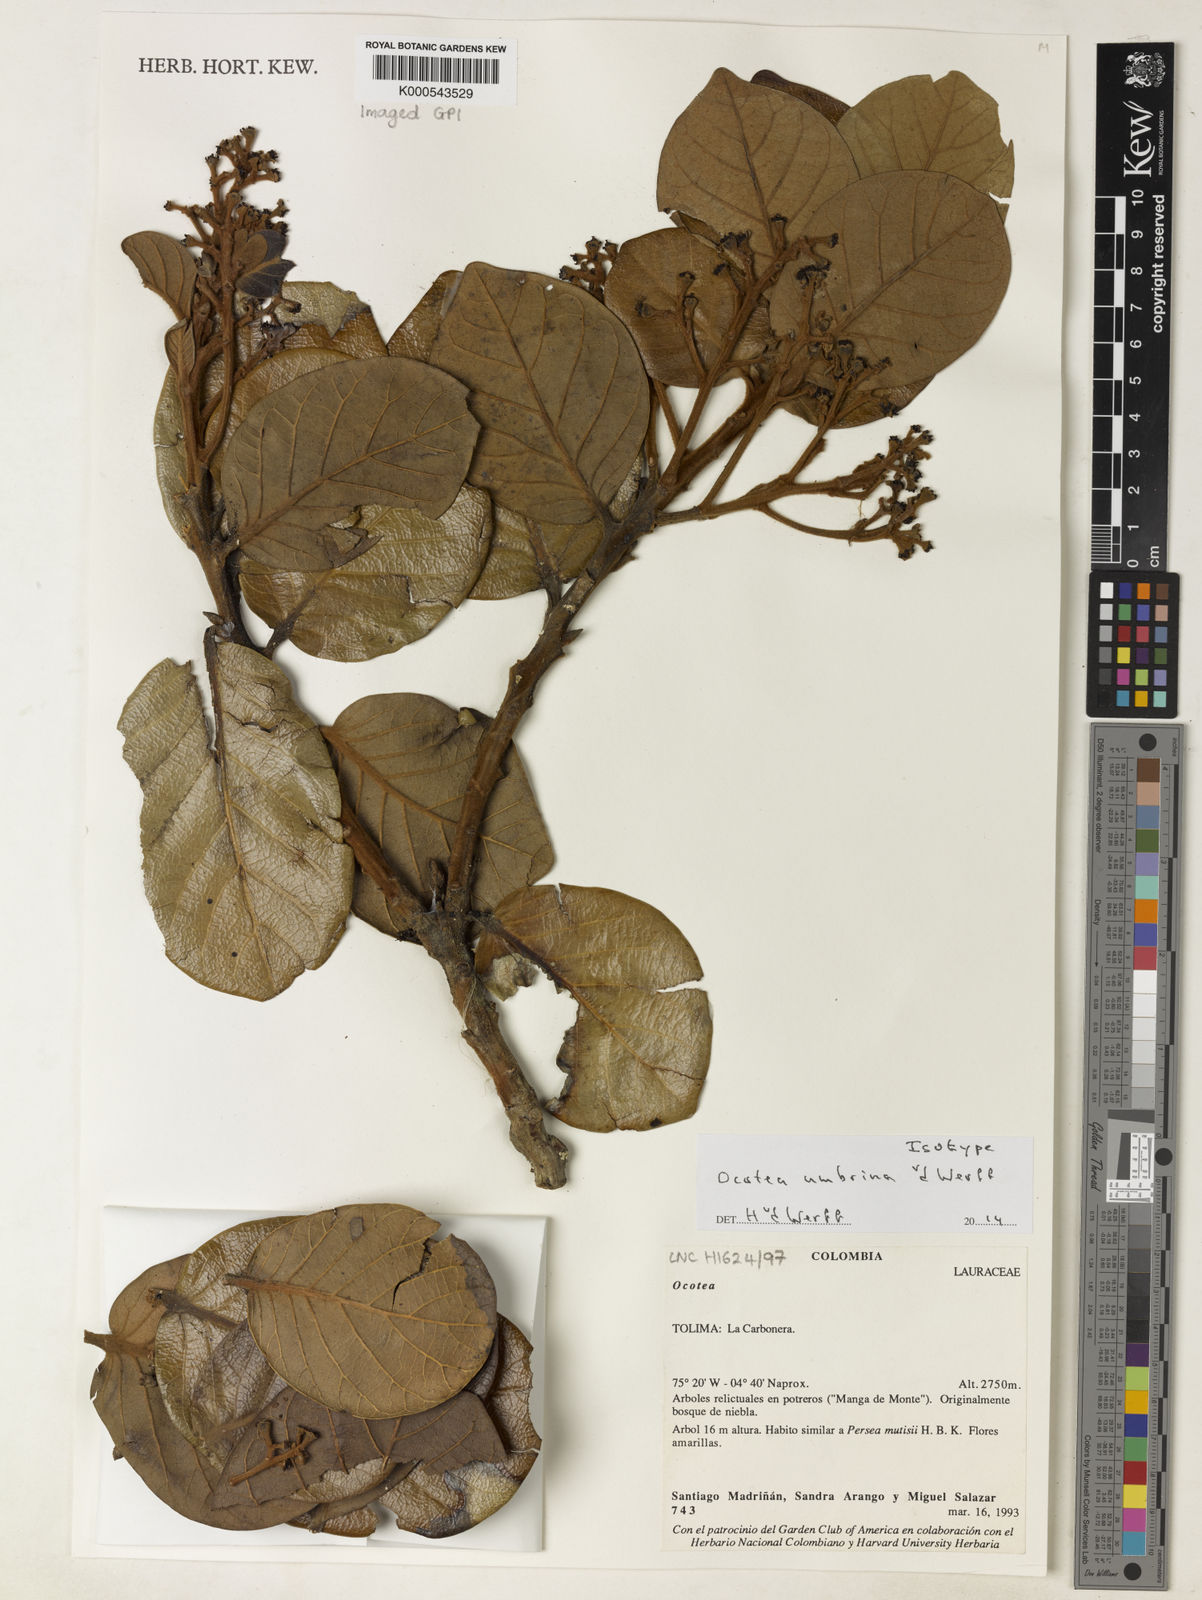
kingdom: Plantae
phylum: Tracheophyta
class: Magnoliopsida
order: Laurales
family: Lauraceae
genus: Ocotea
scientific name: Ocotea umbrina
